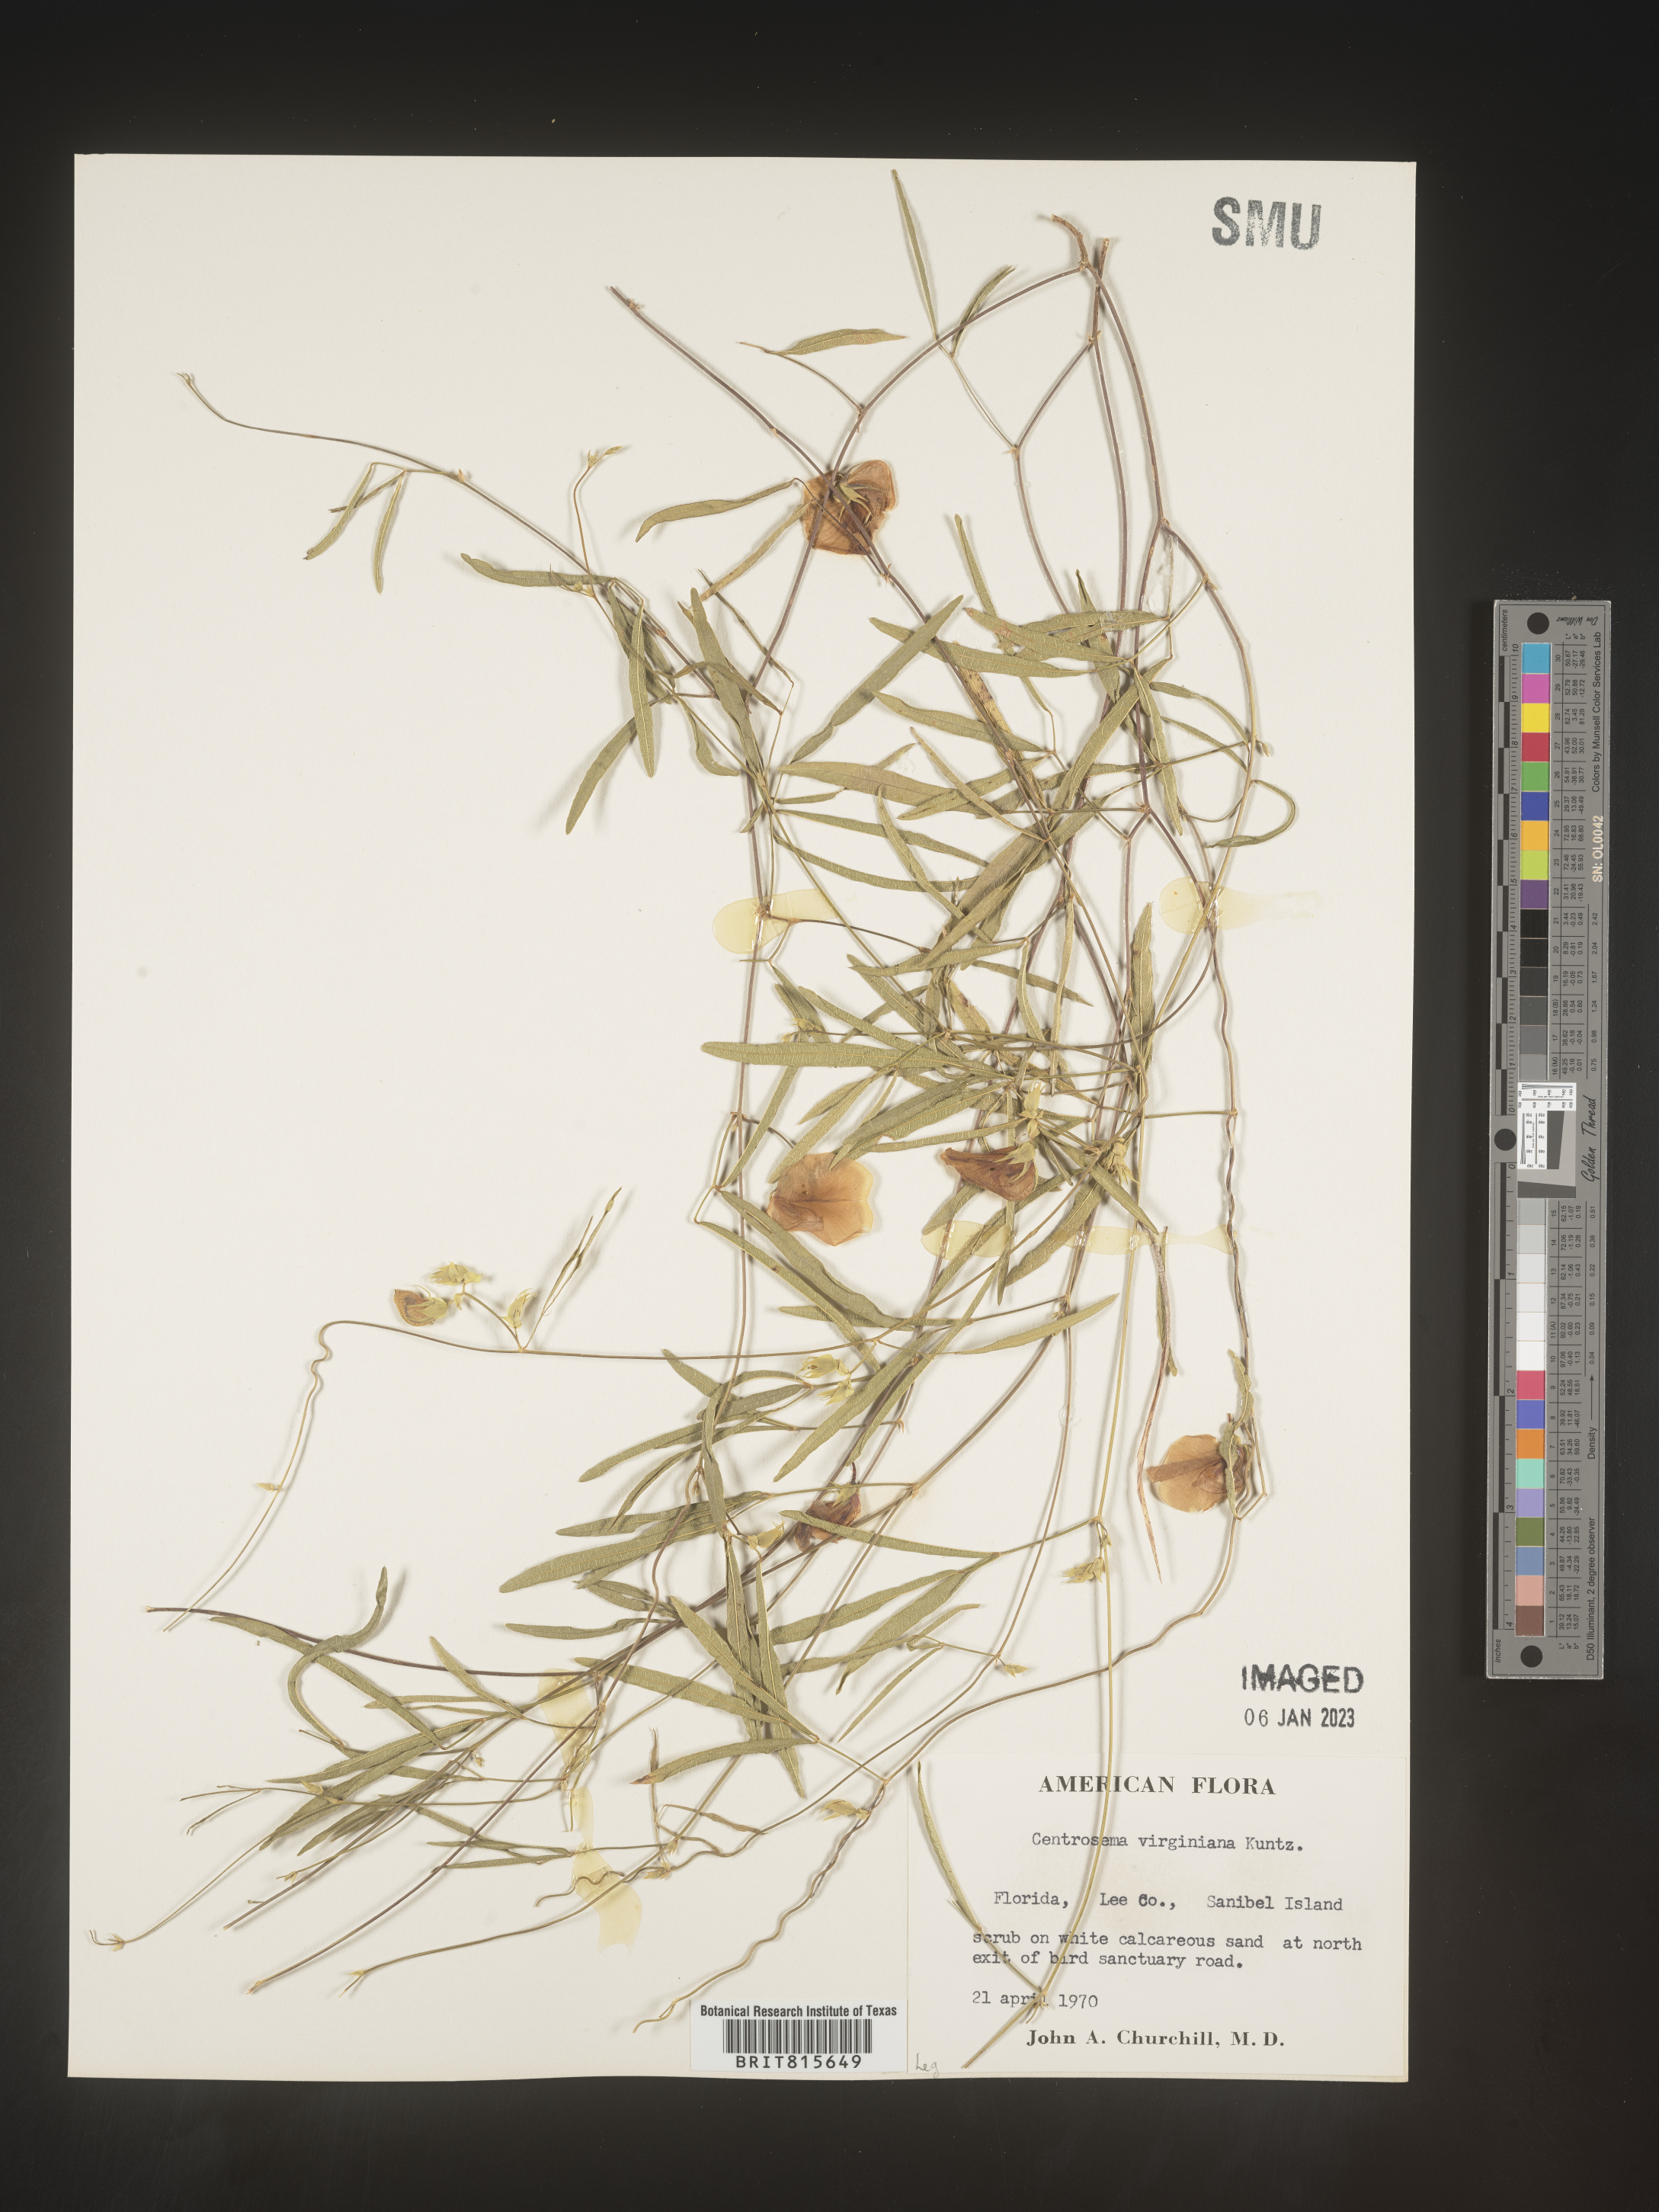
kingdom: Plantae
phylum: Tracheophyta
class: Magnoliopsida
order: Fabales
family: Fabaceae
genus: Centrosema
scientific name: Centrosema virginianum
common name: Butterfly-pea
